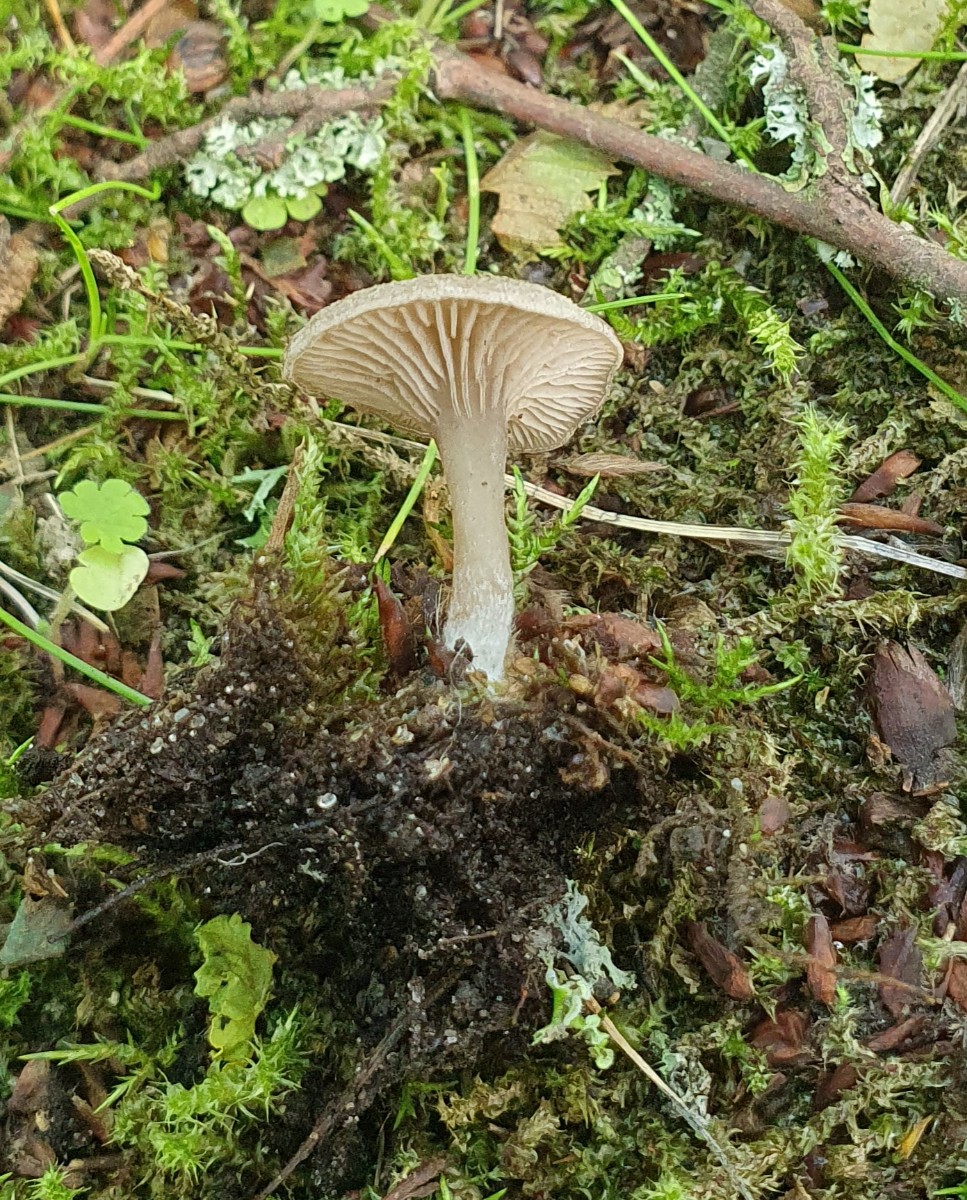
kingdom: Fungi
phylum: Basidiomycota
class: Agaricomycetes
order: Agaricales
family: Entolomataceae
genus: Entoloma
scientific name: Entoloma undatum
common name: bæltet rødblad
